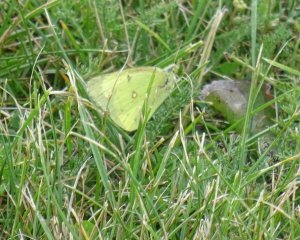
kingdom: Animalia
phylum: Arthropoda
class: Insecta
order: Lepidoptera
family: Pieridae
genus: Colias
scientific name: Colias philodice
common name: Clouded Sulphur
